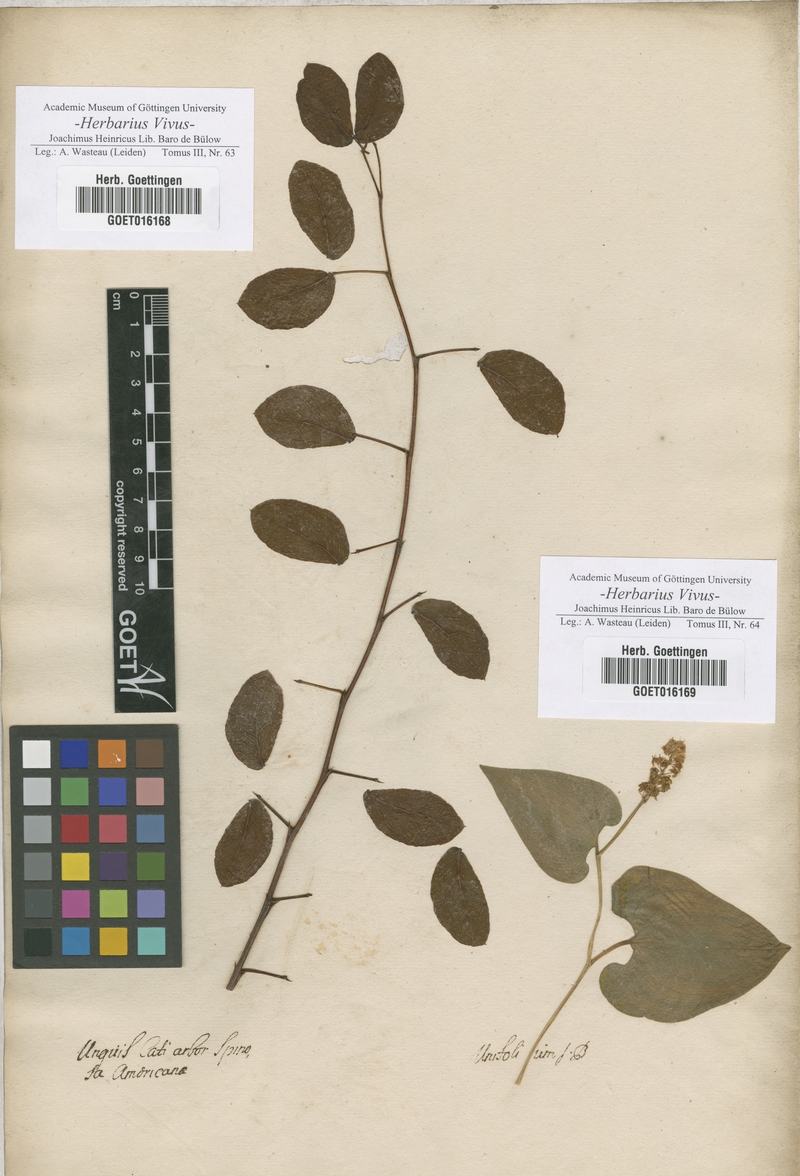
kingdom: Plantae
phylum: Tracheophyta
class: Magnoliopsida
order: Lamiales
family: Oleaceae
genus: Syringa
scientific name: Syringa
